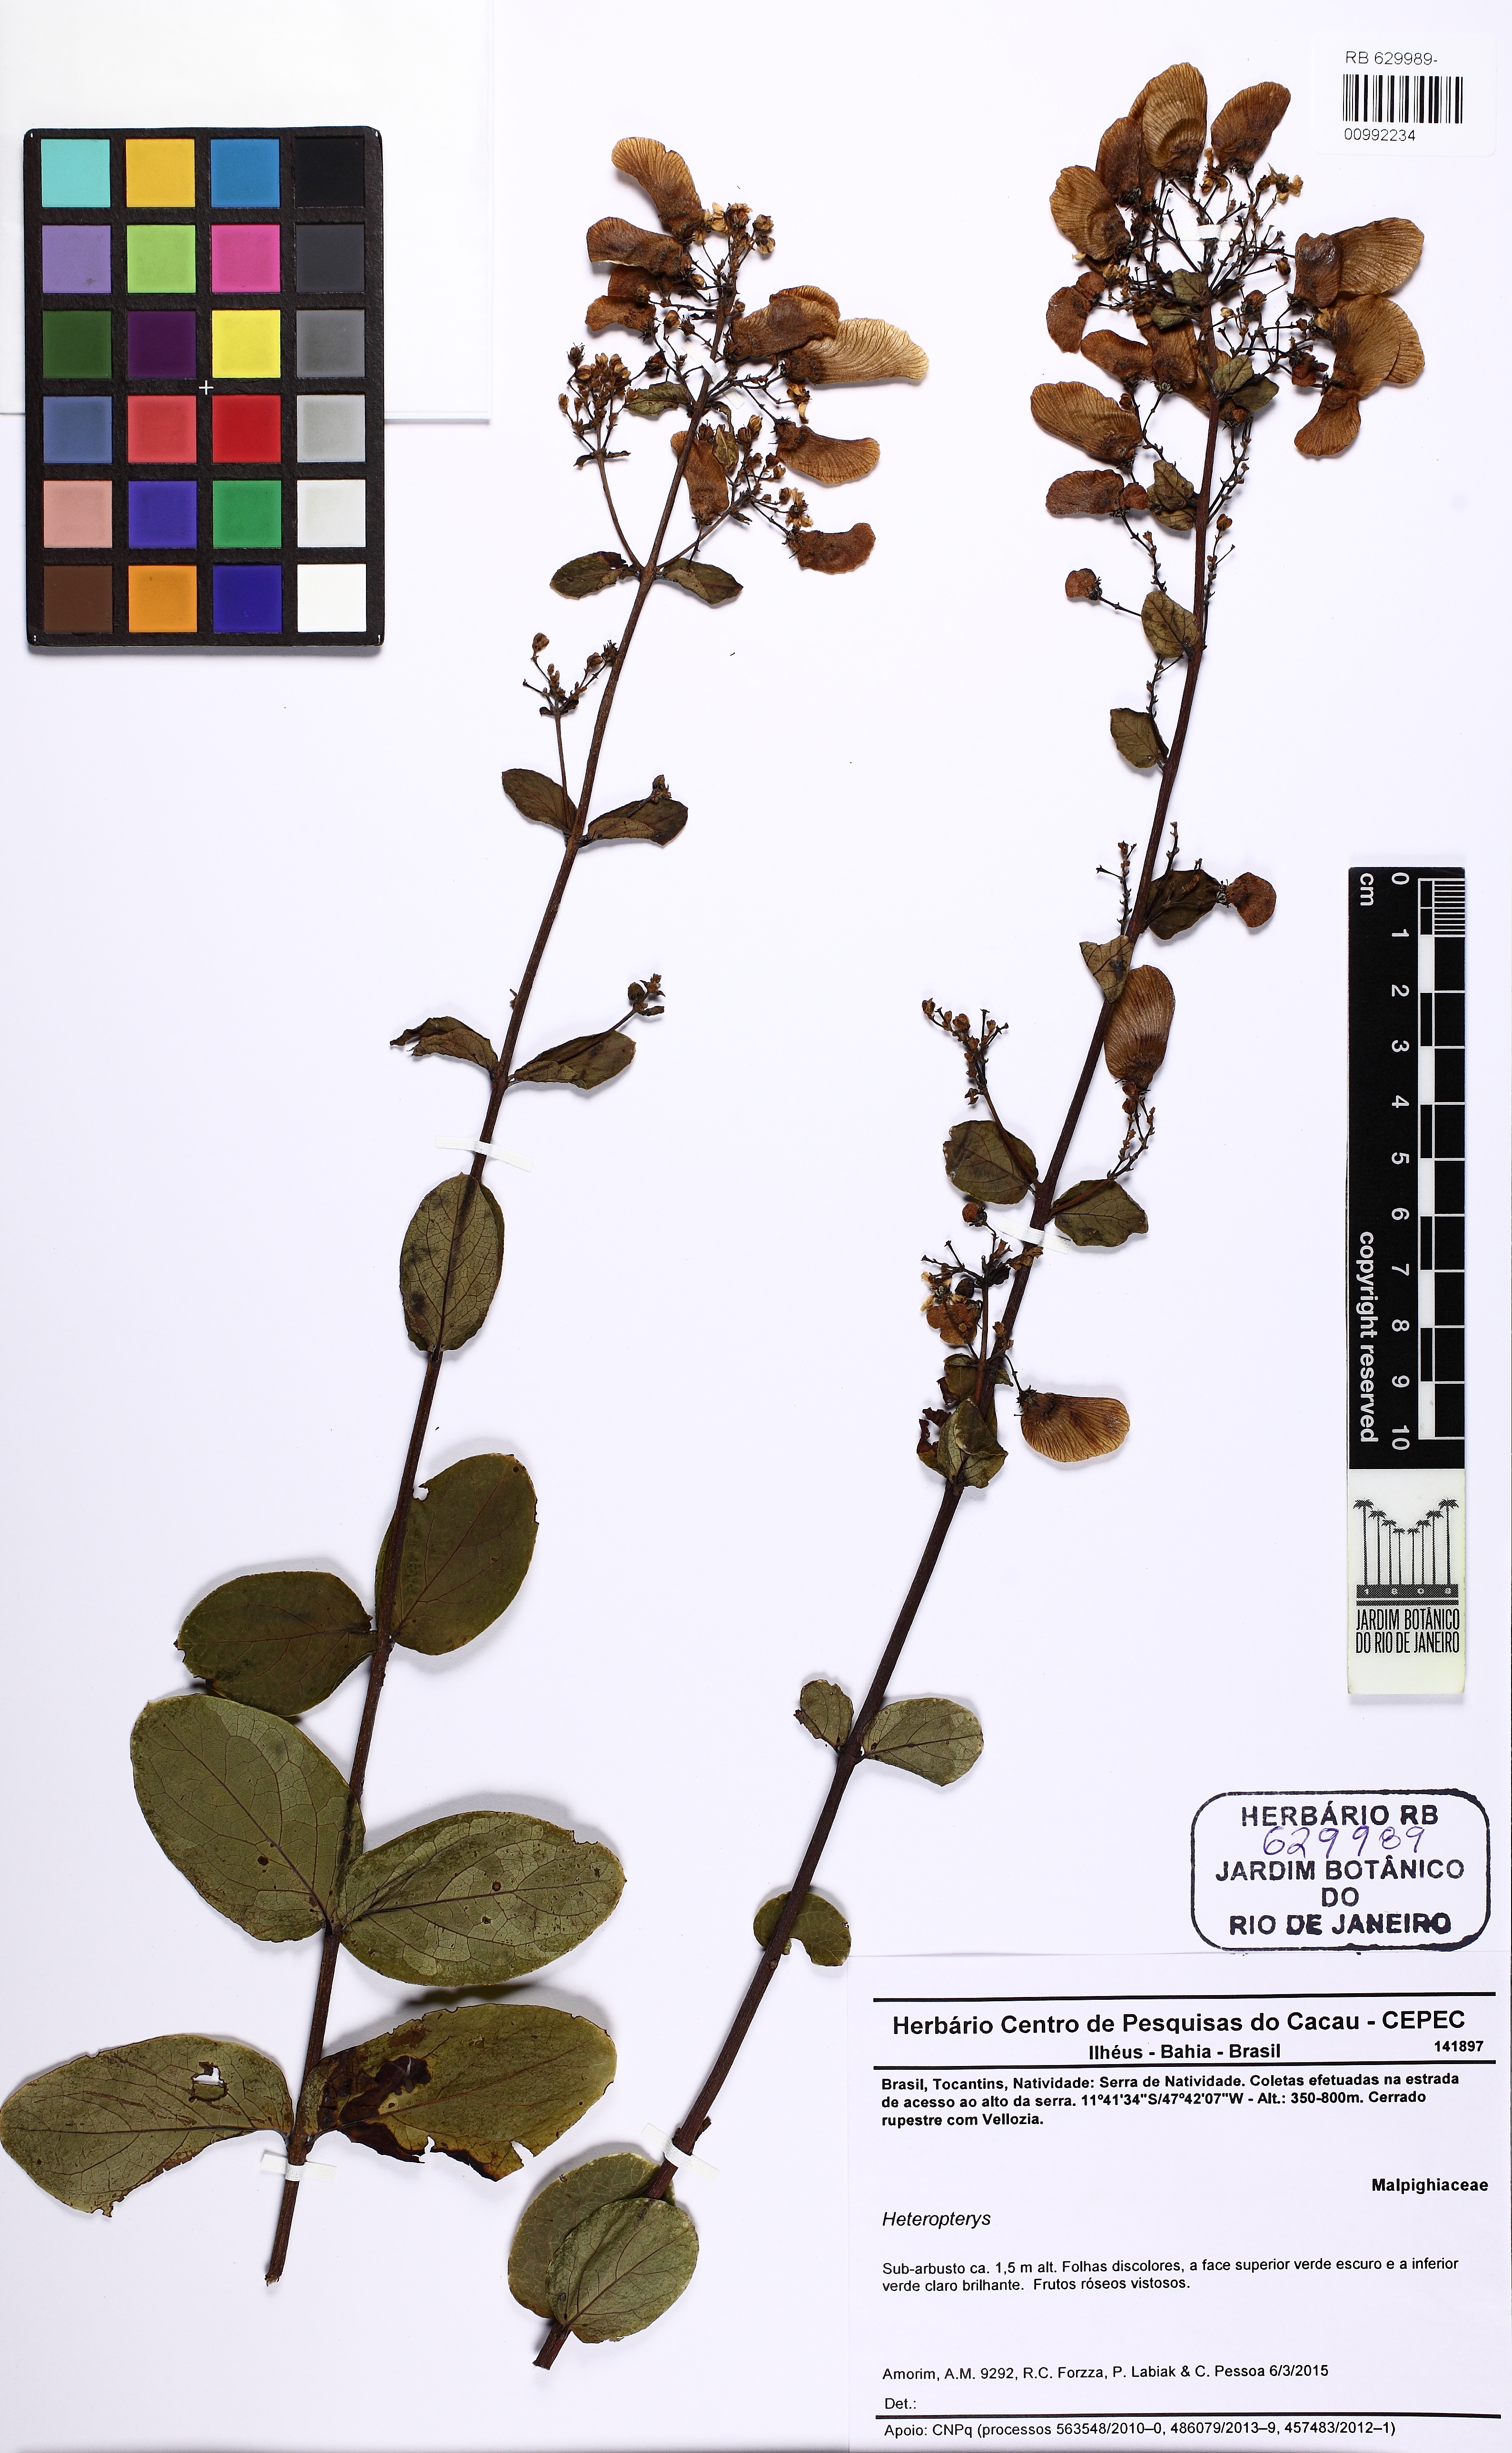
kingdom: Plantae
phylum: Tracheophyta
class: Magnoliopsida
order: Malpighiales
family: Malpighiaceae
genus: Heteropterys
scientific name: Heteropterys
